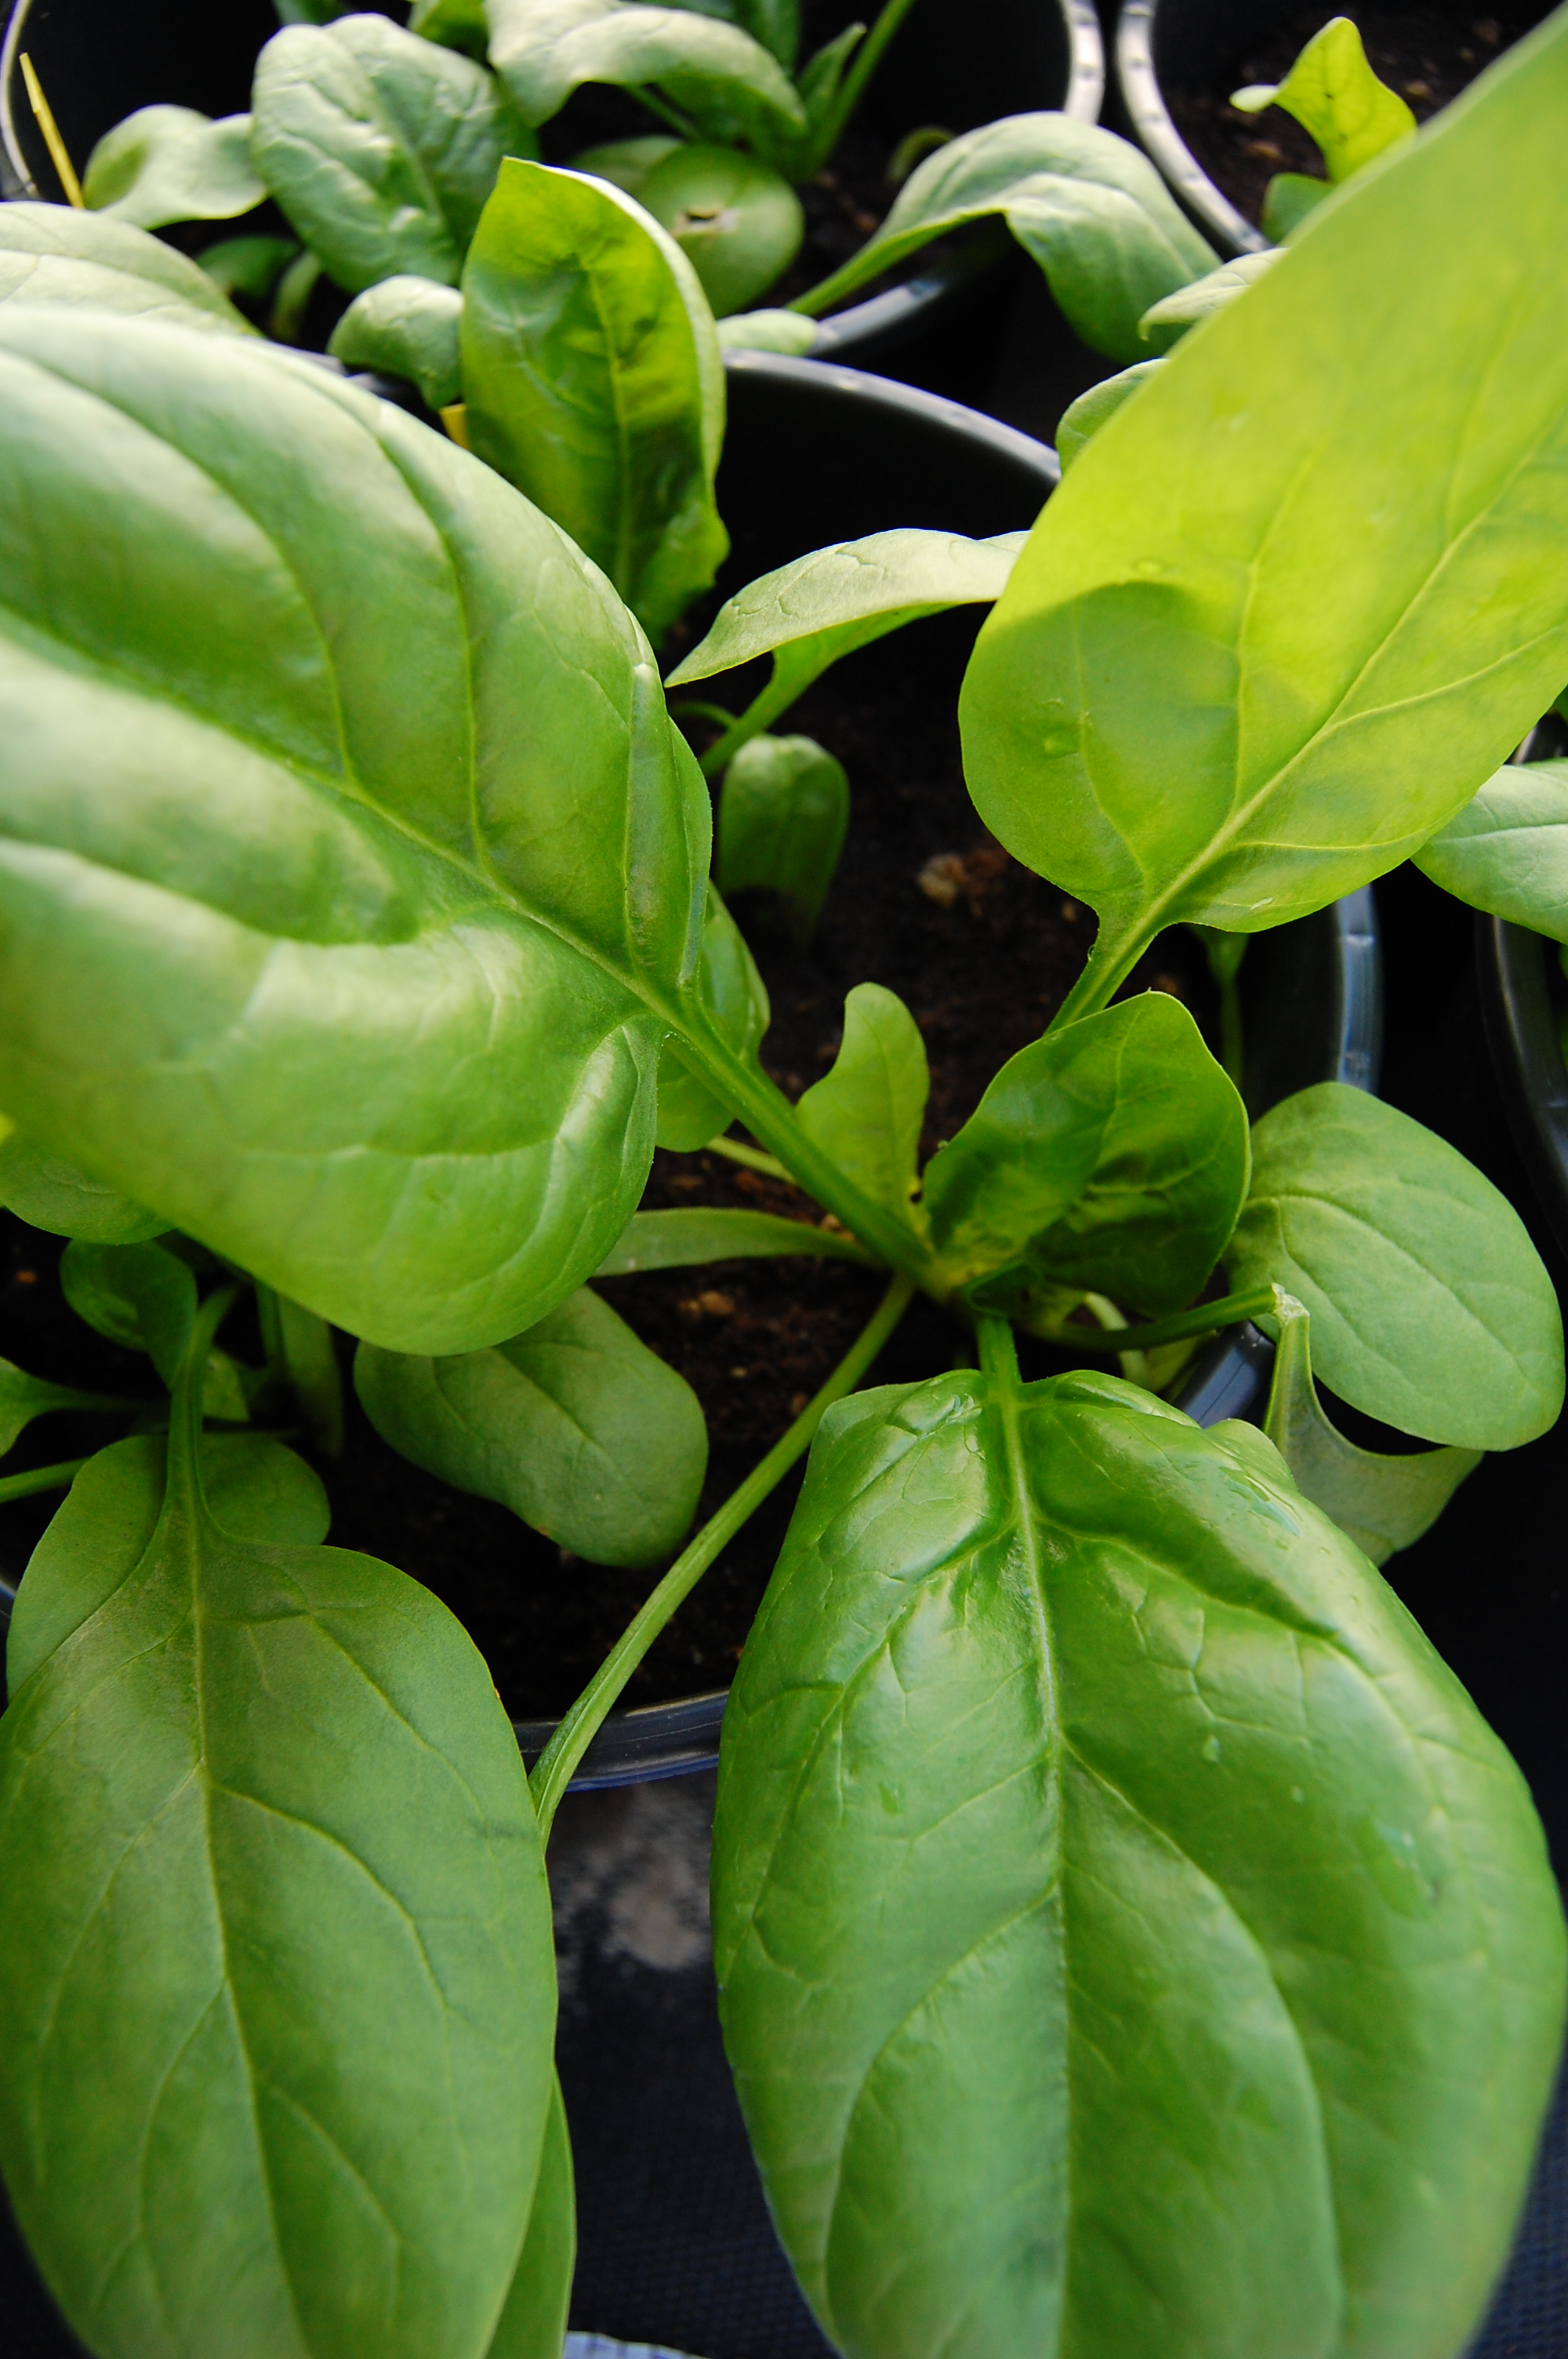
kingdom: Plantae
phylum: Tracheophyta
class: Magnoliopsida
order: Caryophyllales
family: Amaranthaceae
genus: Spinacia
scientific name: Spinacia oleracea
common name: Spinach
